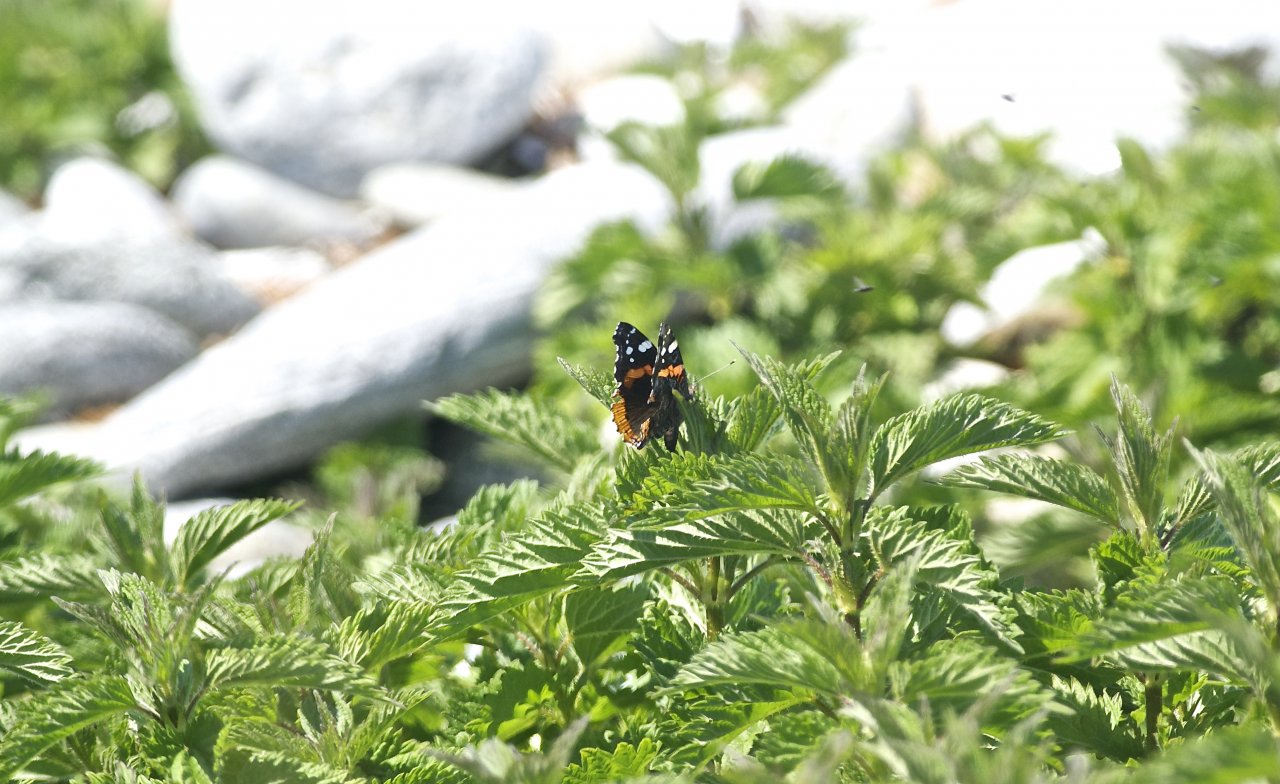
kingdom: Animalia
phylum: Arthropoda
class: Insecta
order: Lepidoptera
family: Nymphalidae
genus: Vanessa
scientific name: Vanessa atalanta
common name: Red Admiral
